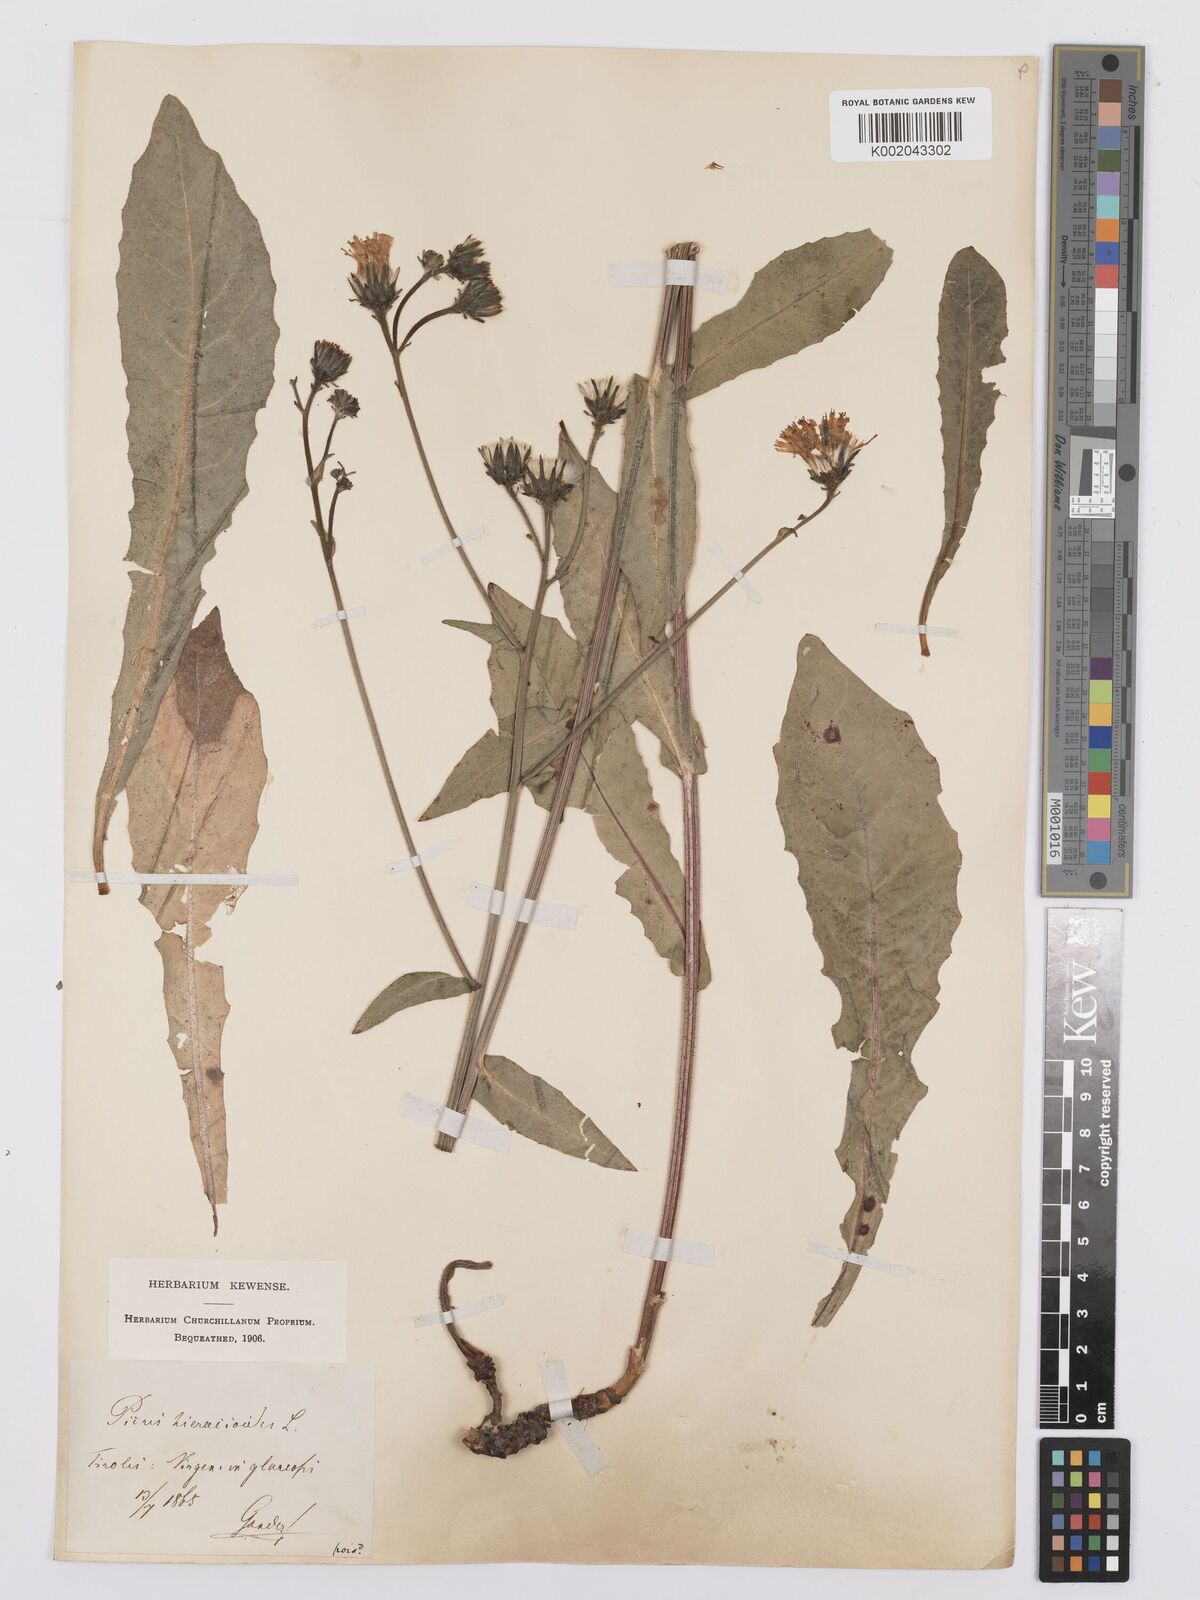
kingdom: Plantae
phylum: Tracheophyta
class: Magnoliopsida
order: Asterales
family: Asteraceae
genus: Picris
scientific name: Picris hieracioides
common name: Hawkweed oxtongue
